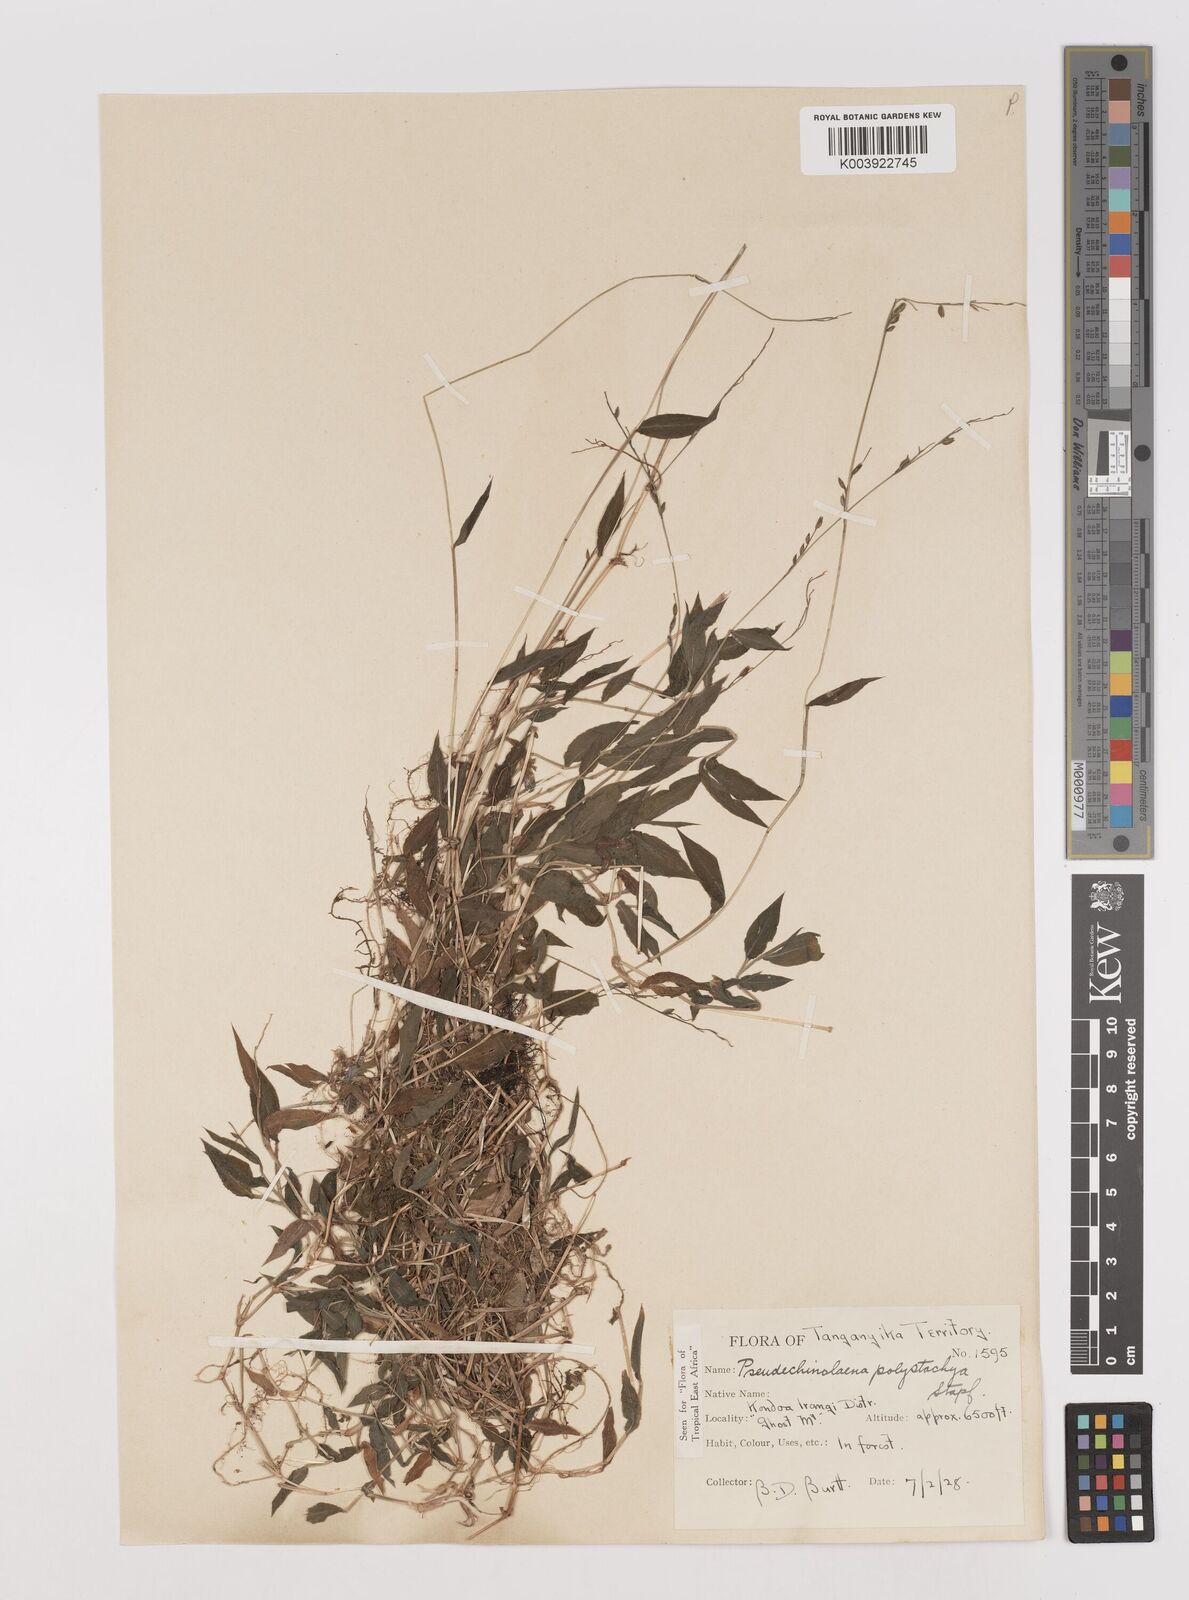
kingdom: Plantae
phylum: Tracheophyta
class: Liliopsida
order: Poales
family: Poaceae
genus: Pseudechinolaena
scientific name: Pseudechinolaena polystachya
